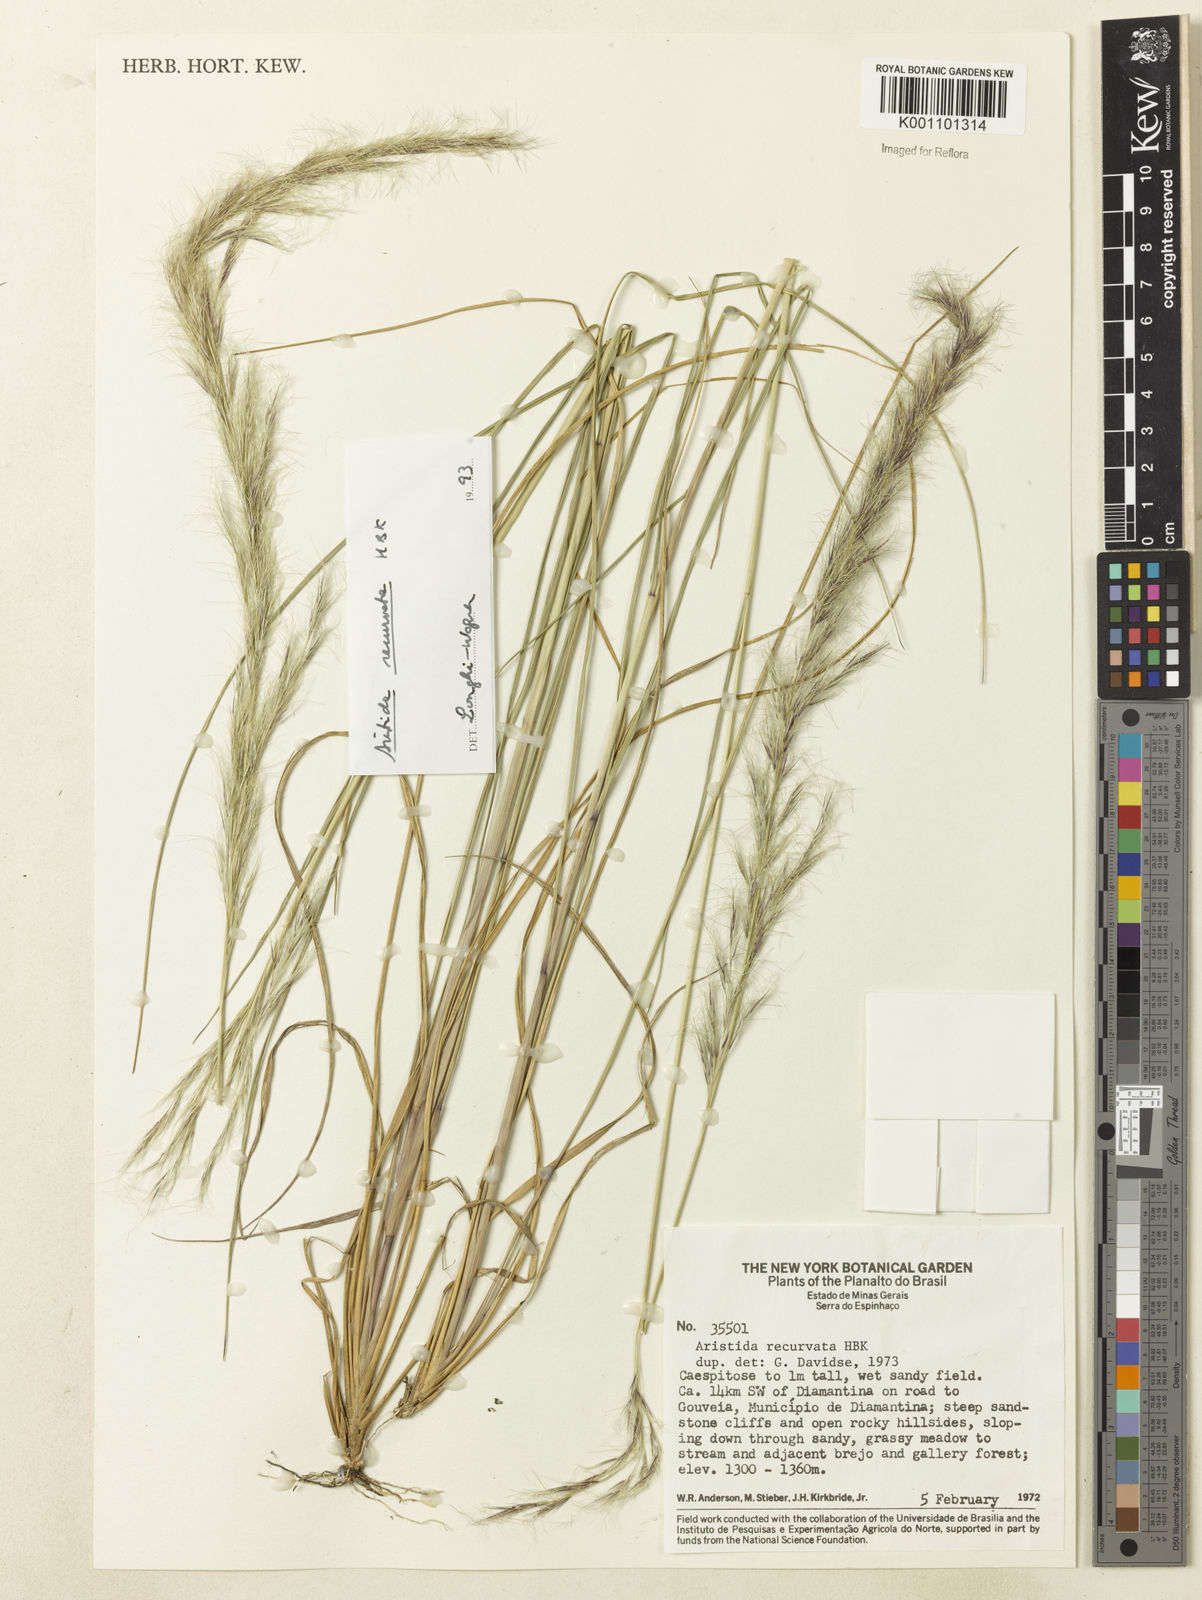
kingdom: Plantae
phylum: Tracheophyta
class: Liliopsida
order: Poales
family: Poaceae
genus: Aristida
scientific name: Aristida recurvata
